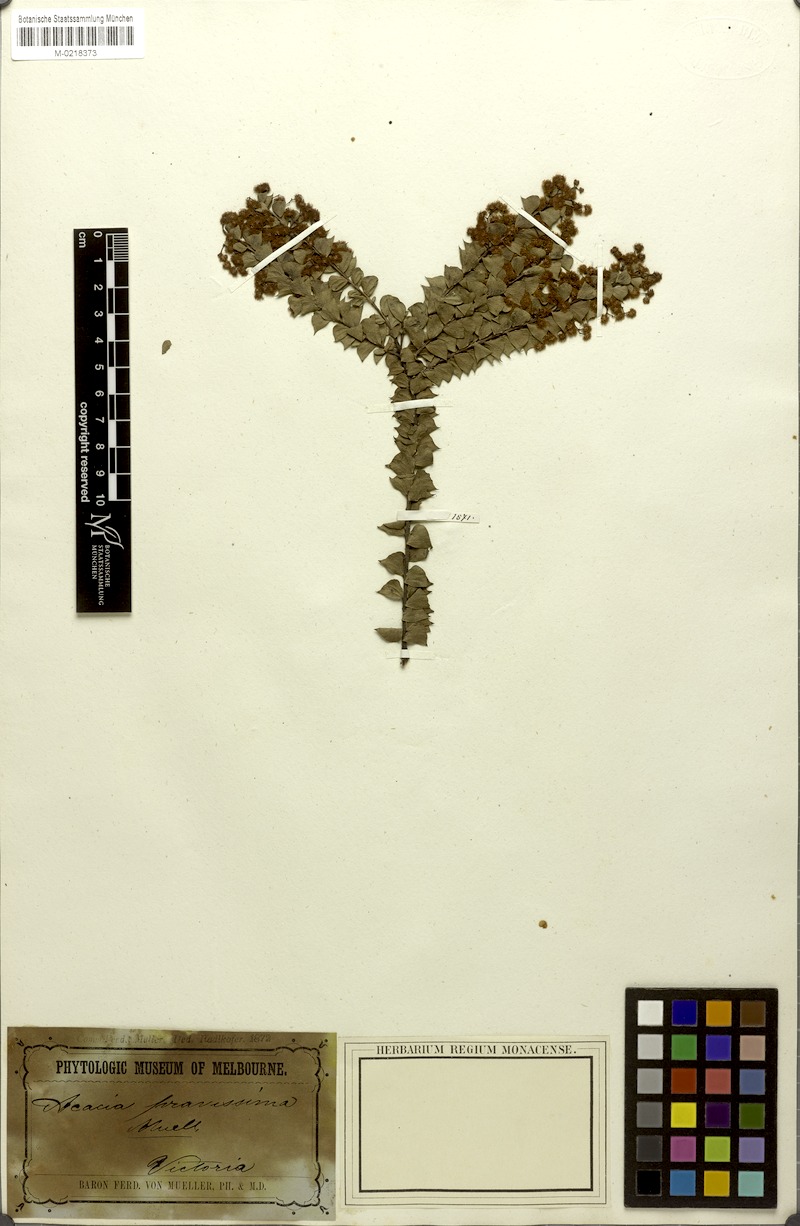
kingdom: Plantae
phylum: Tracheophyta
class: Magnoliopsida
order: Fabales
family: Fabaceae
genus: Acacia
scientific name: Acacia pravissima
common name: Tumut wattle
